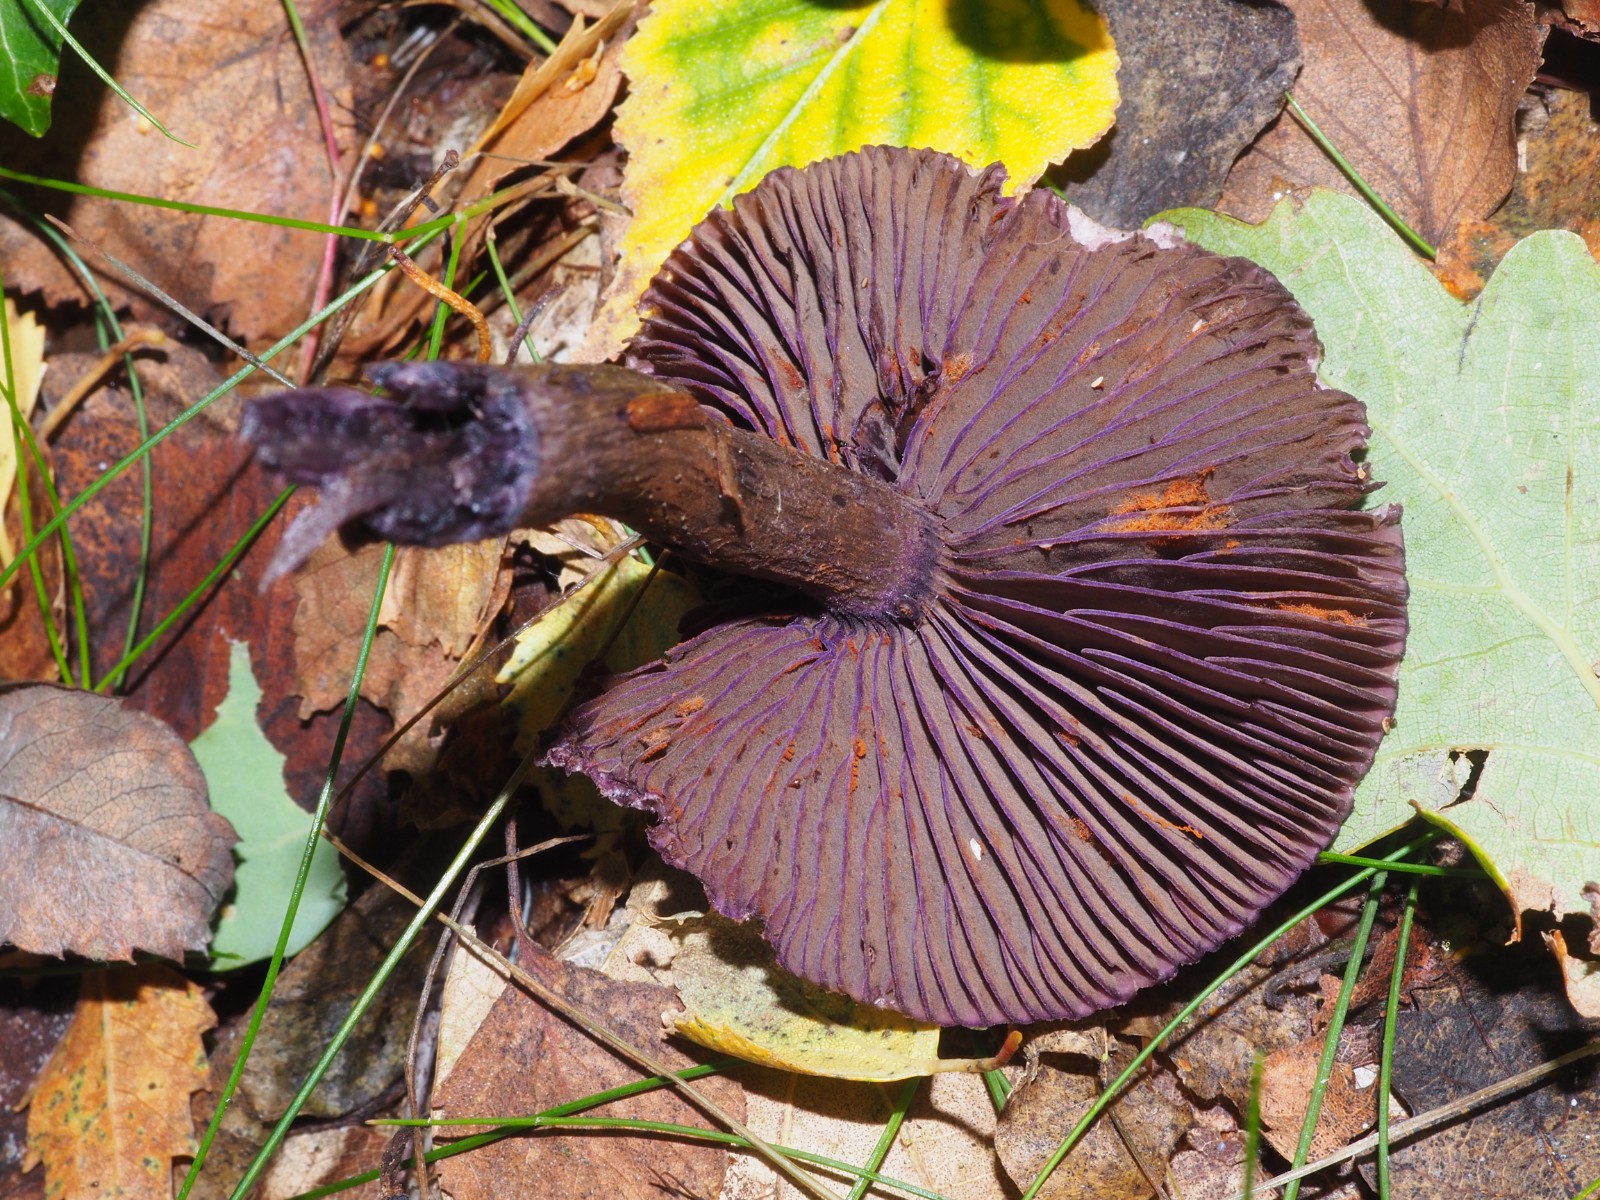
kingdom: Fungi
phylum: Basidiomycota
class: Agaricomycetes
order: Agaricales
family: Cortinariaceae
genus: Cortinarius
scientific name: Cortinarius violaceus
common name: mørkviolet slørhat
